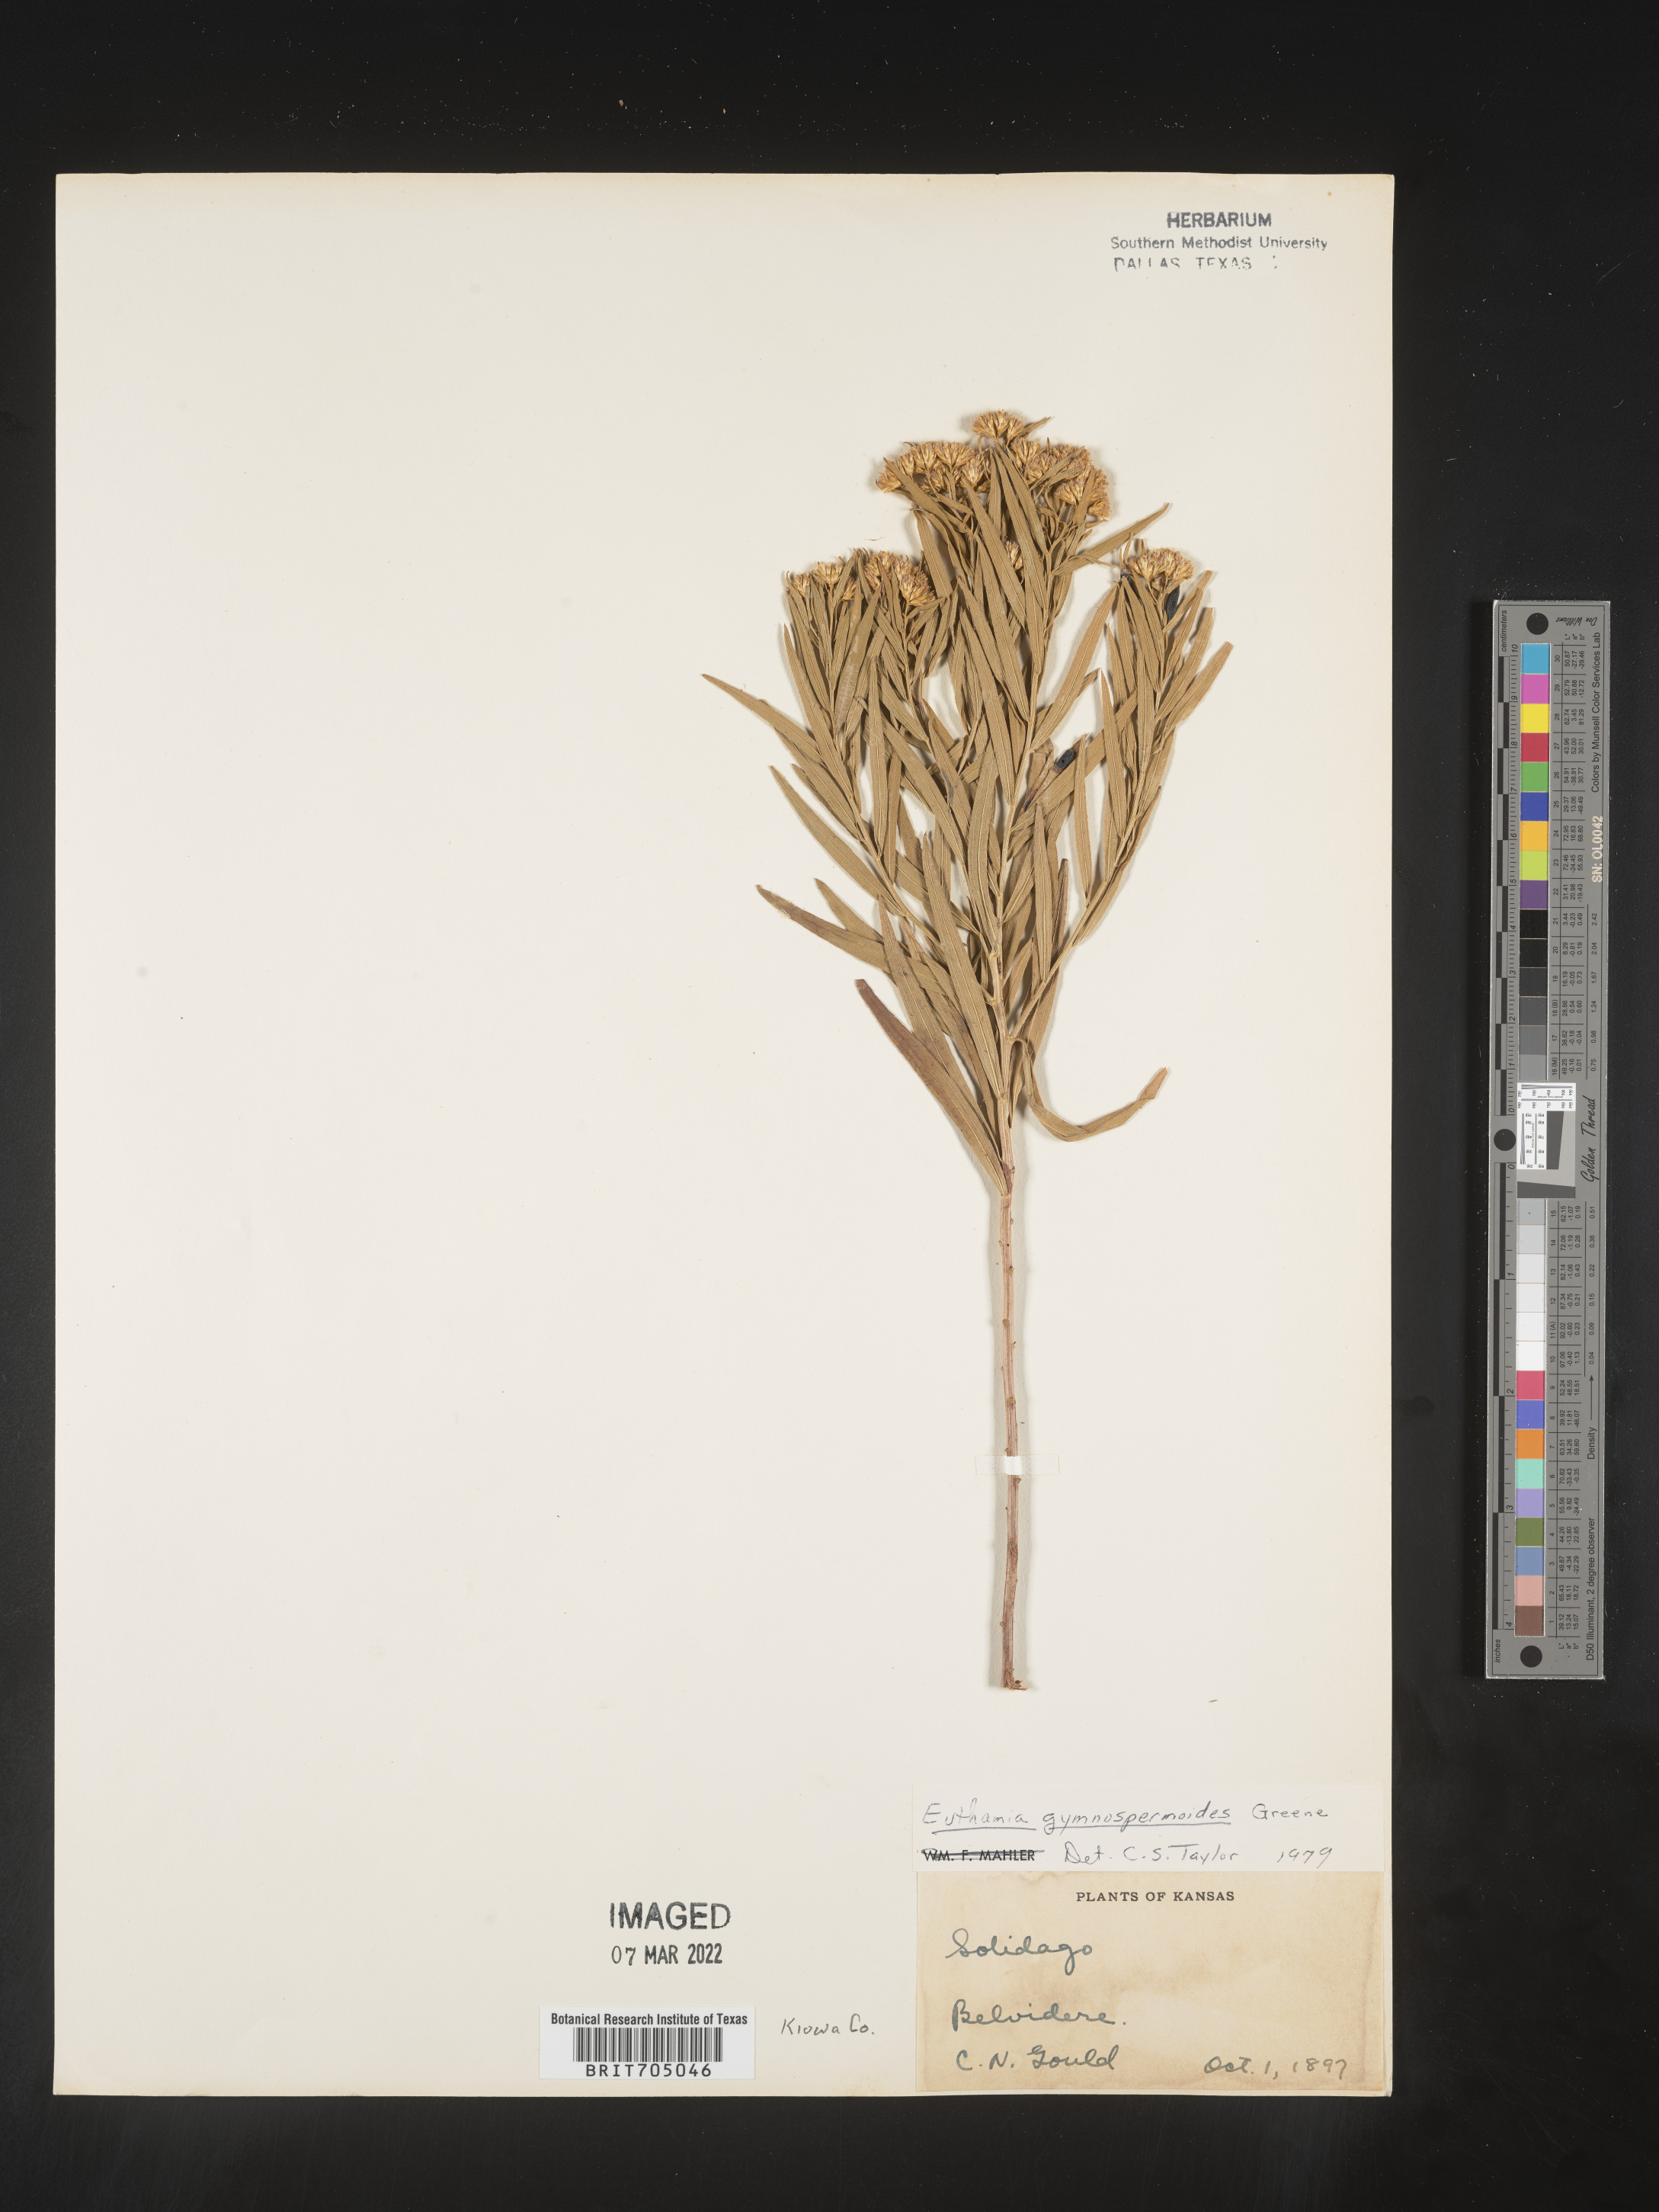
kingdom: Plantae
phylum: Tracheophyta
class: Magnoliopsida
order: Asterales
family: Asteraceae
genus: Euthamia
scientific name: Euthamia gymnospermoides
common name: Great plains goldentop
